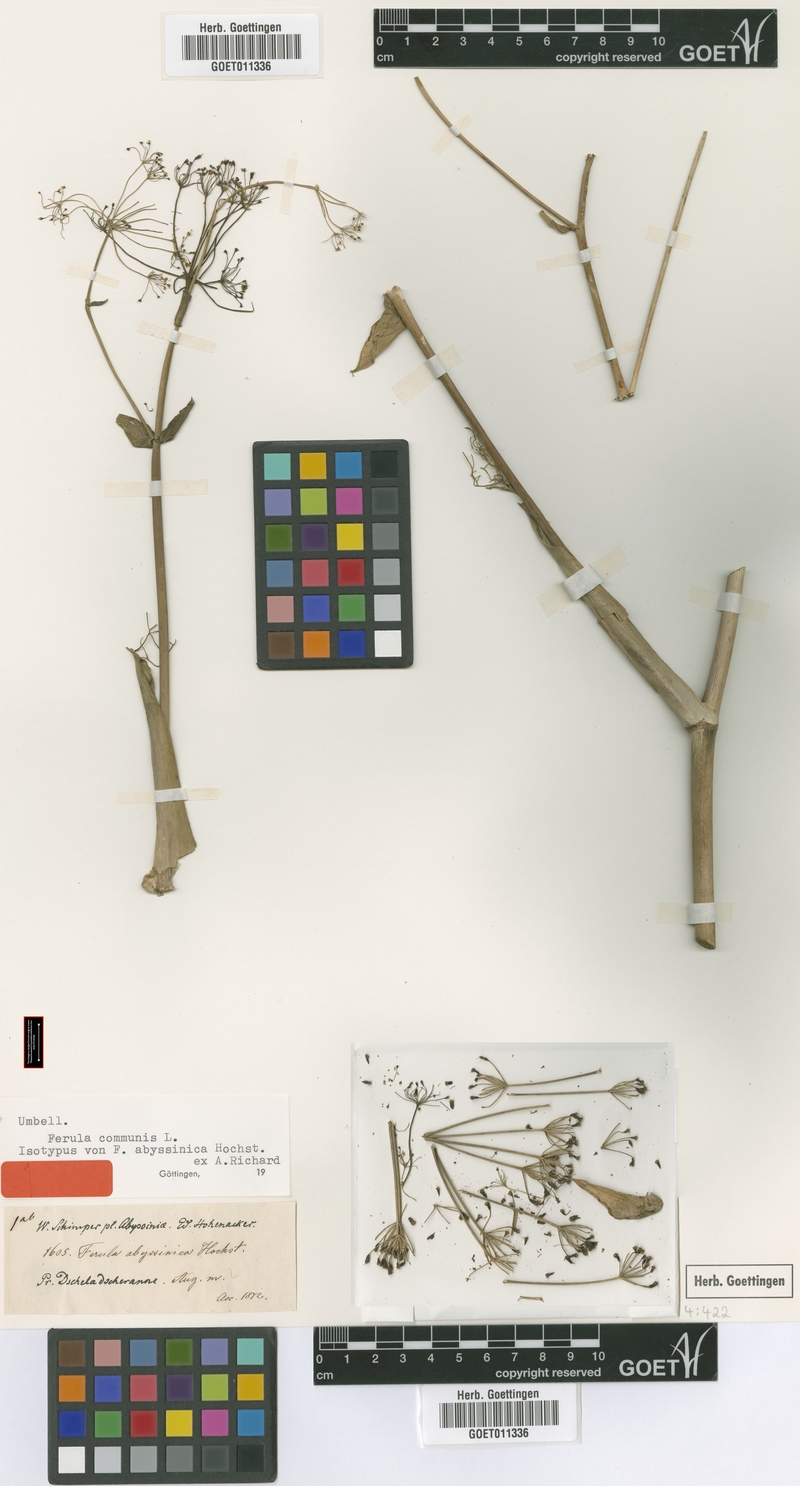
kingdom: Plantae
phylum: Tracheophyta
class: Magnoliopsida
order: Apiales
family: Apiaceae
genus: Ferula
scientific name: Ferula communis
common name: Giant fennel
